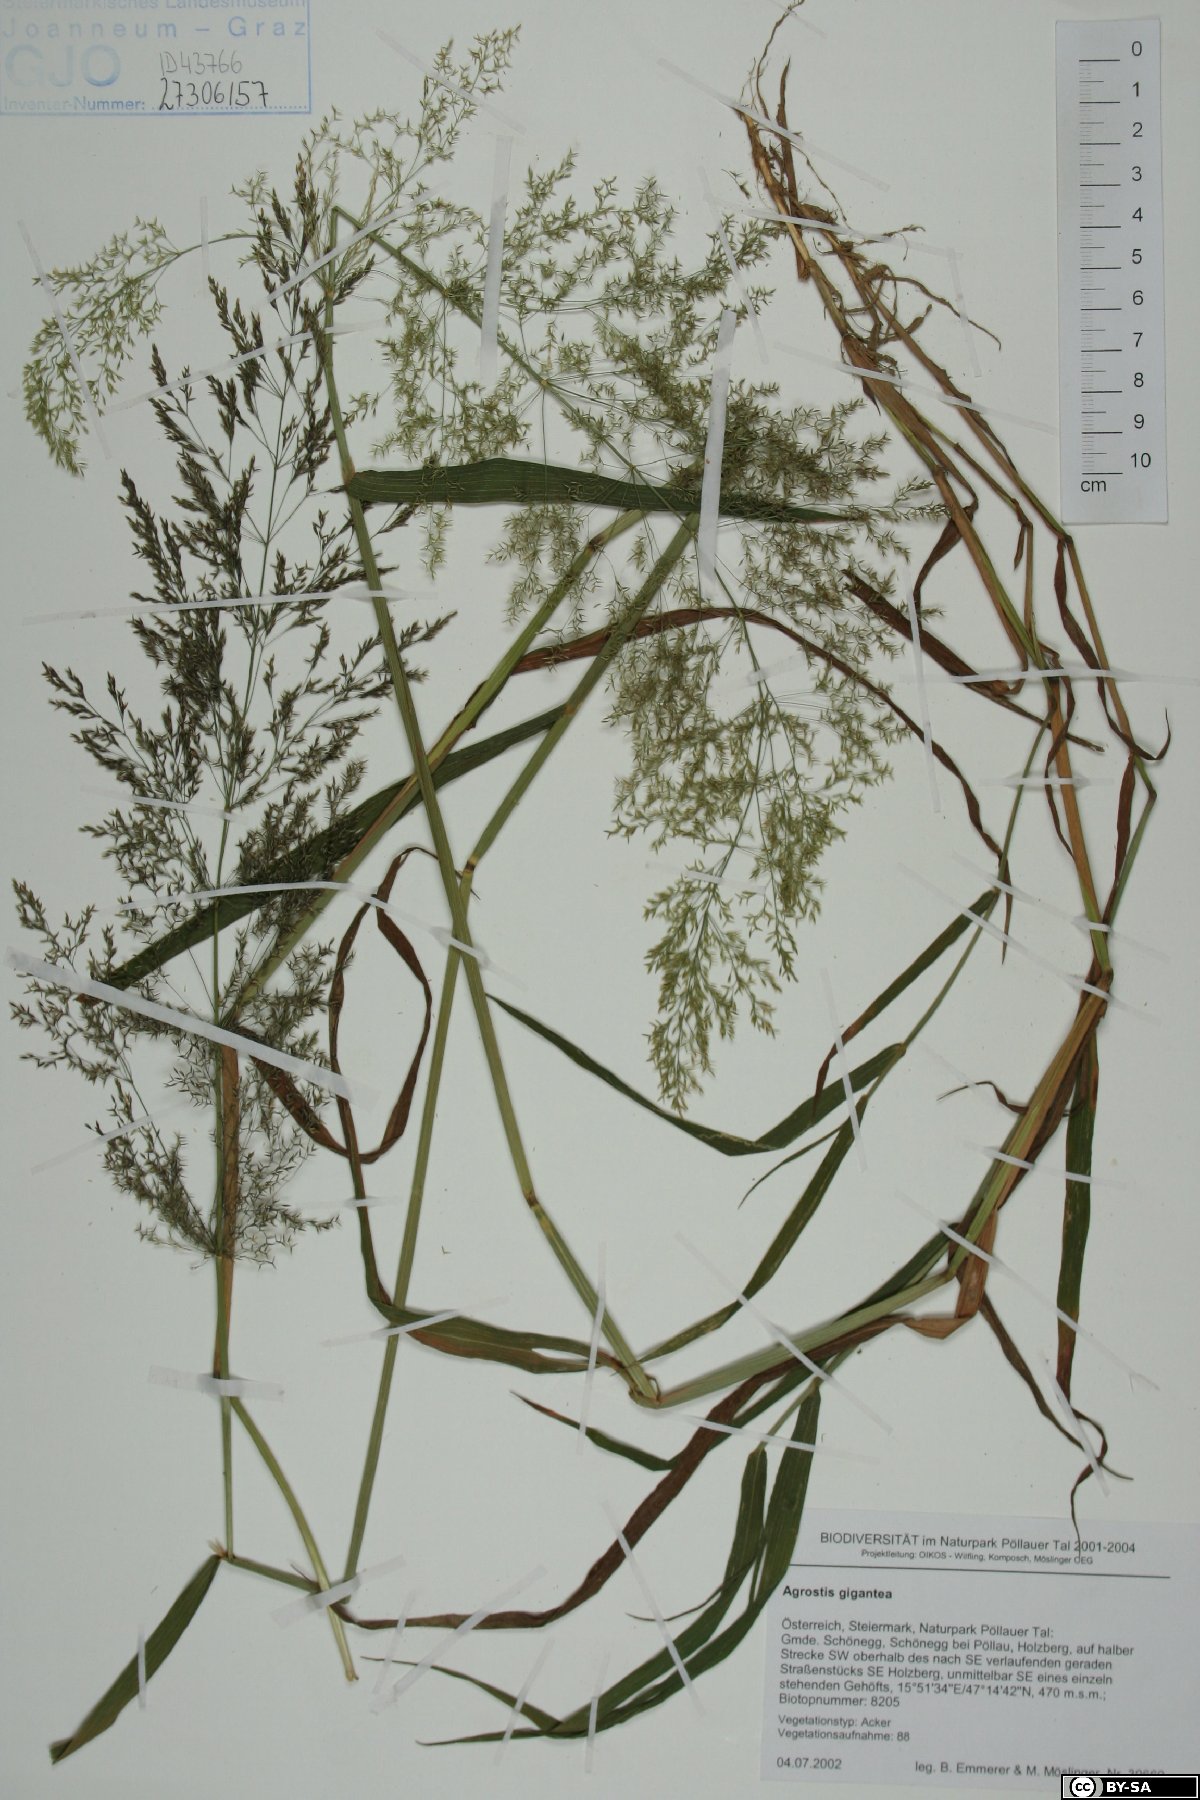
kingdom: Plantae
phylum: Tracheophyta
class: Liliopsida
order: Poales
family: Poaceae
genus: Agrostis
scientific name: Agrostis capillaris
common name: Colonial bentgrass
